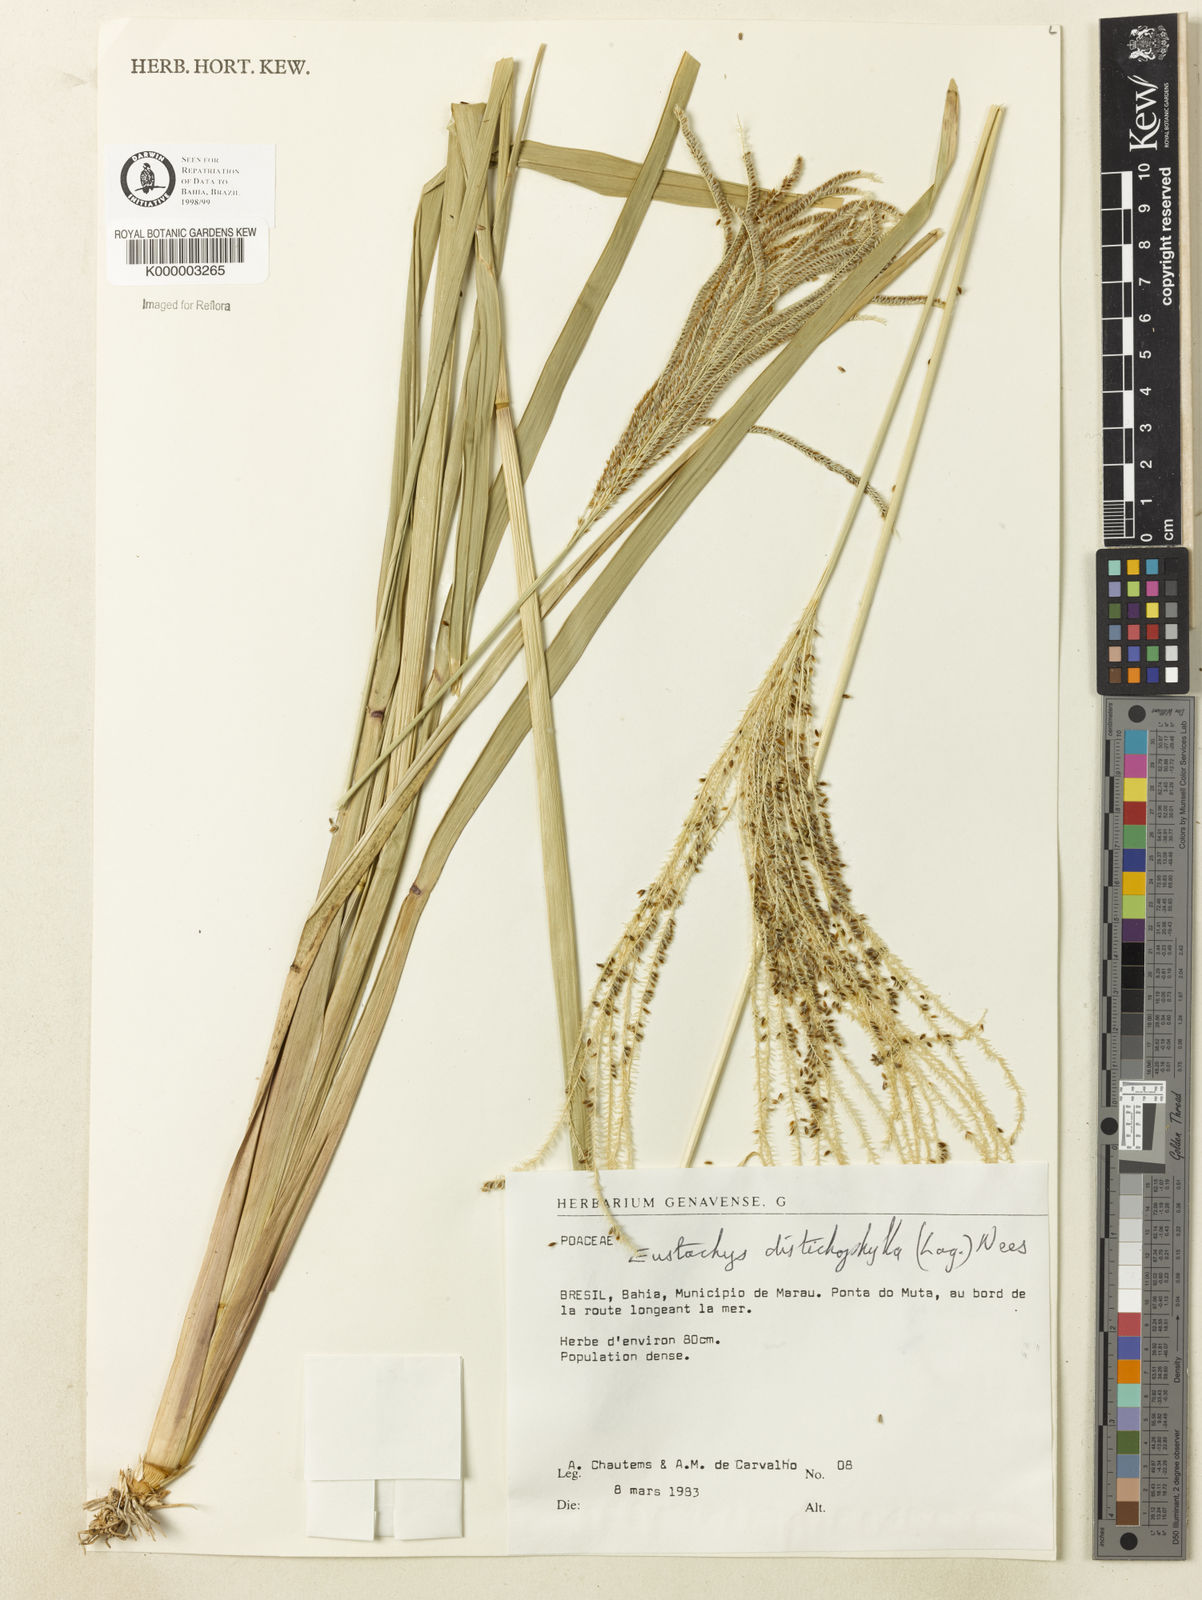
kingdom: Plantae
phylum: Tracheophyta
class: Liliopsida
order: Poales
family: Poaceae
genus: Eustachys
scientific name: Eustachys distichophylla
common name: Weeping fingergrass
